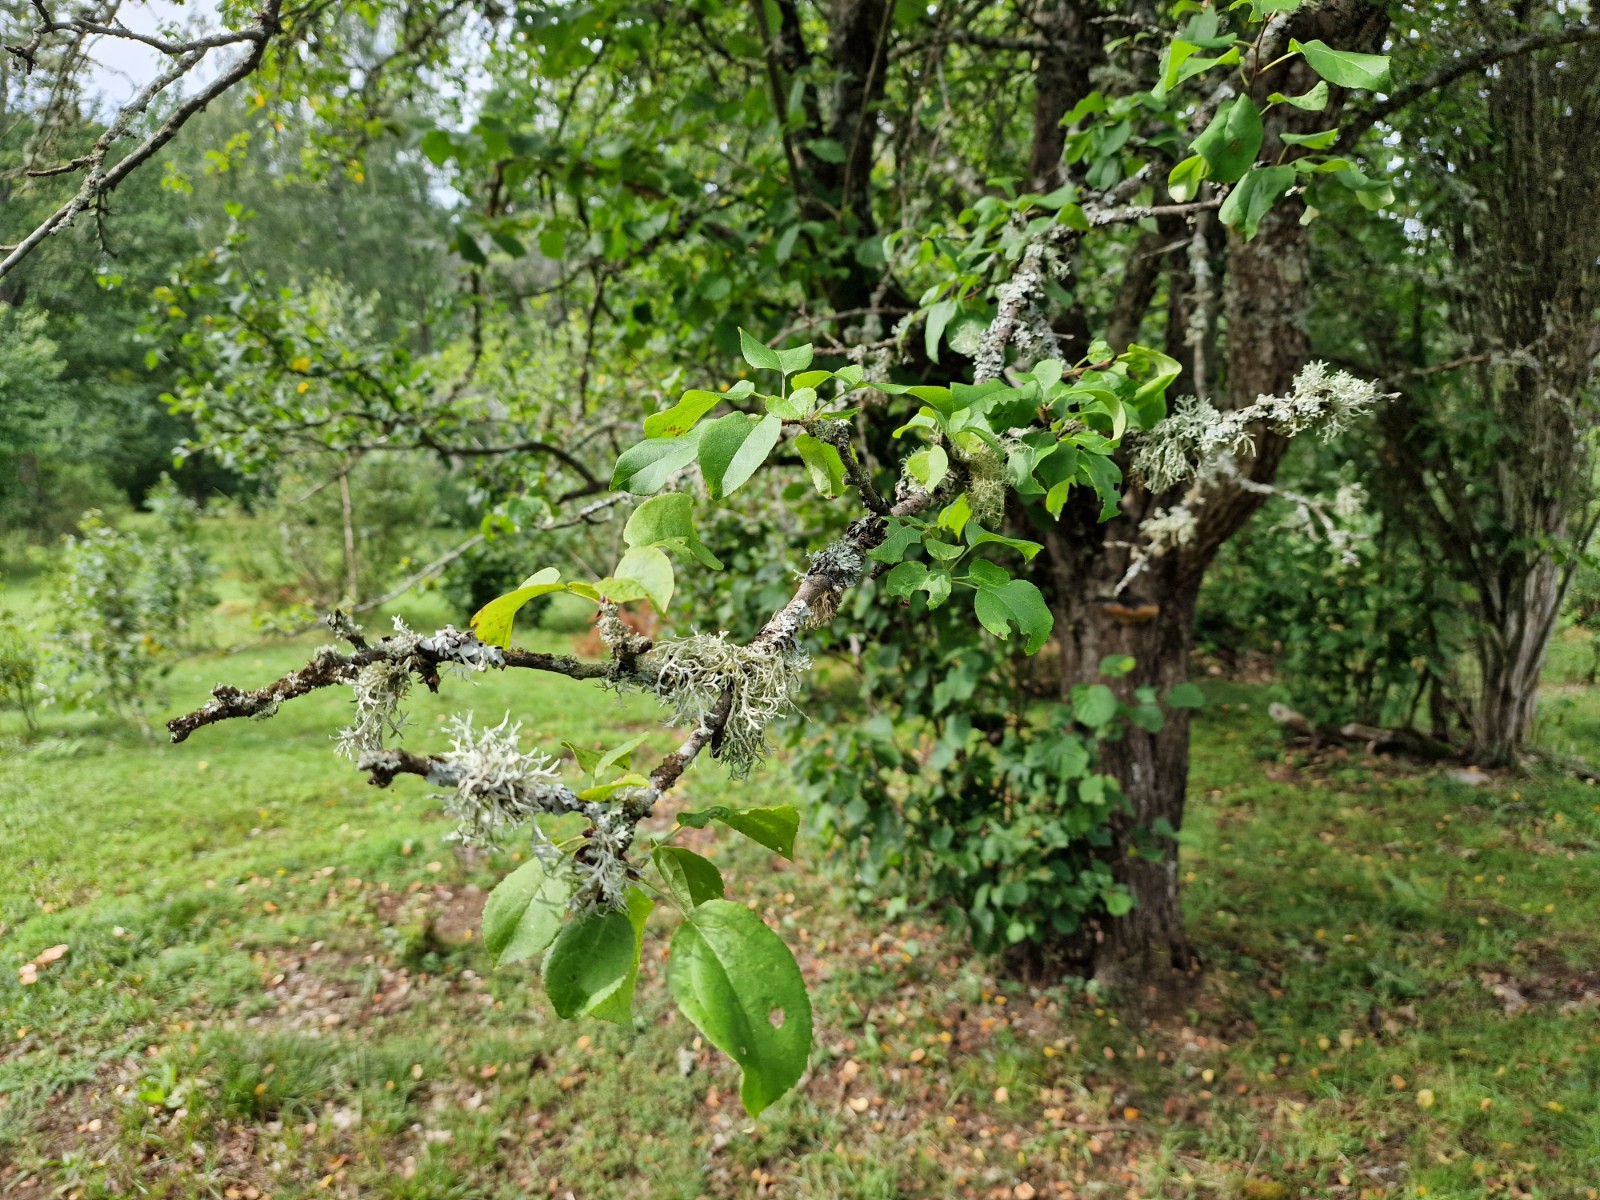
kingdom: Fungi
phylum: Basidiomycota
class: Agaricomycetes
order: Hymenochaetales
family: Hymenochaetaceae
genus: Phellinus
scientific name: Phellinus
